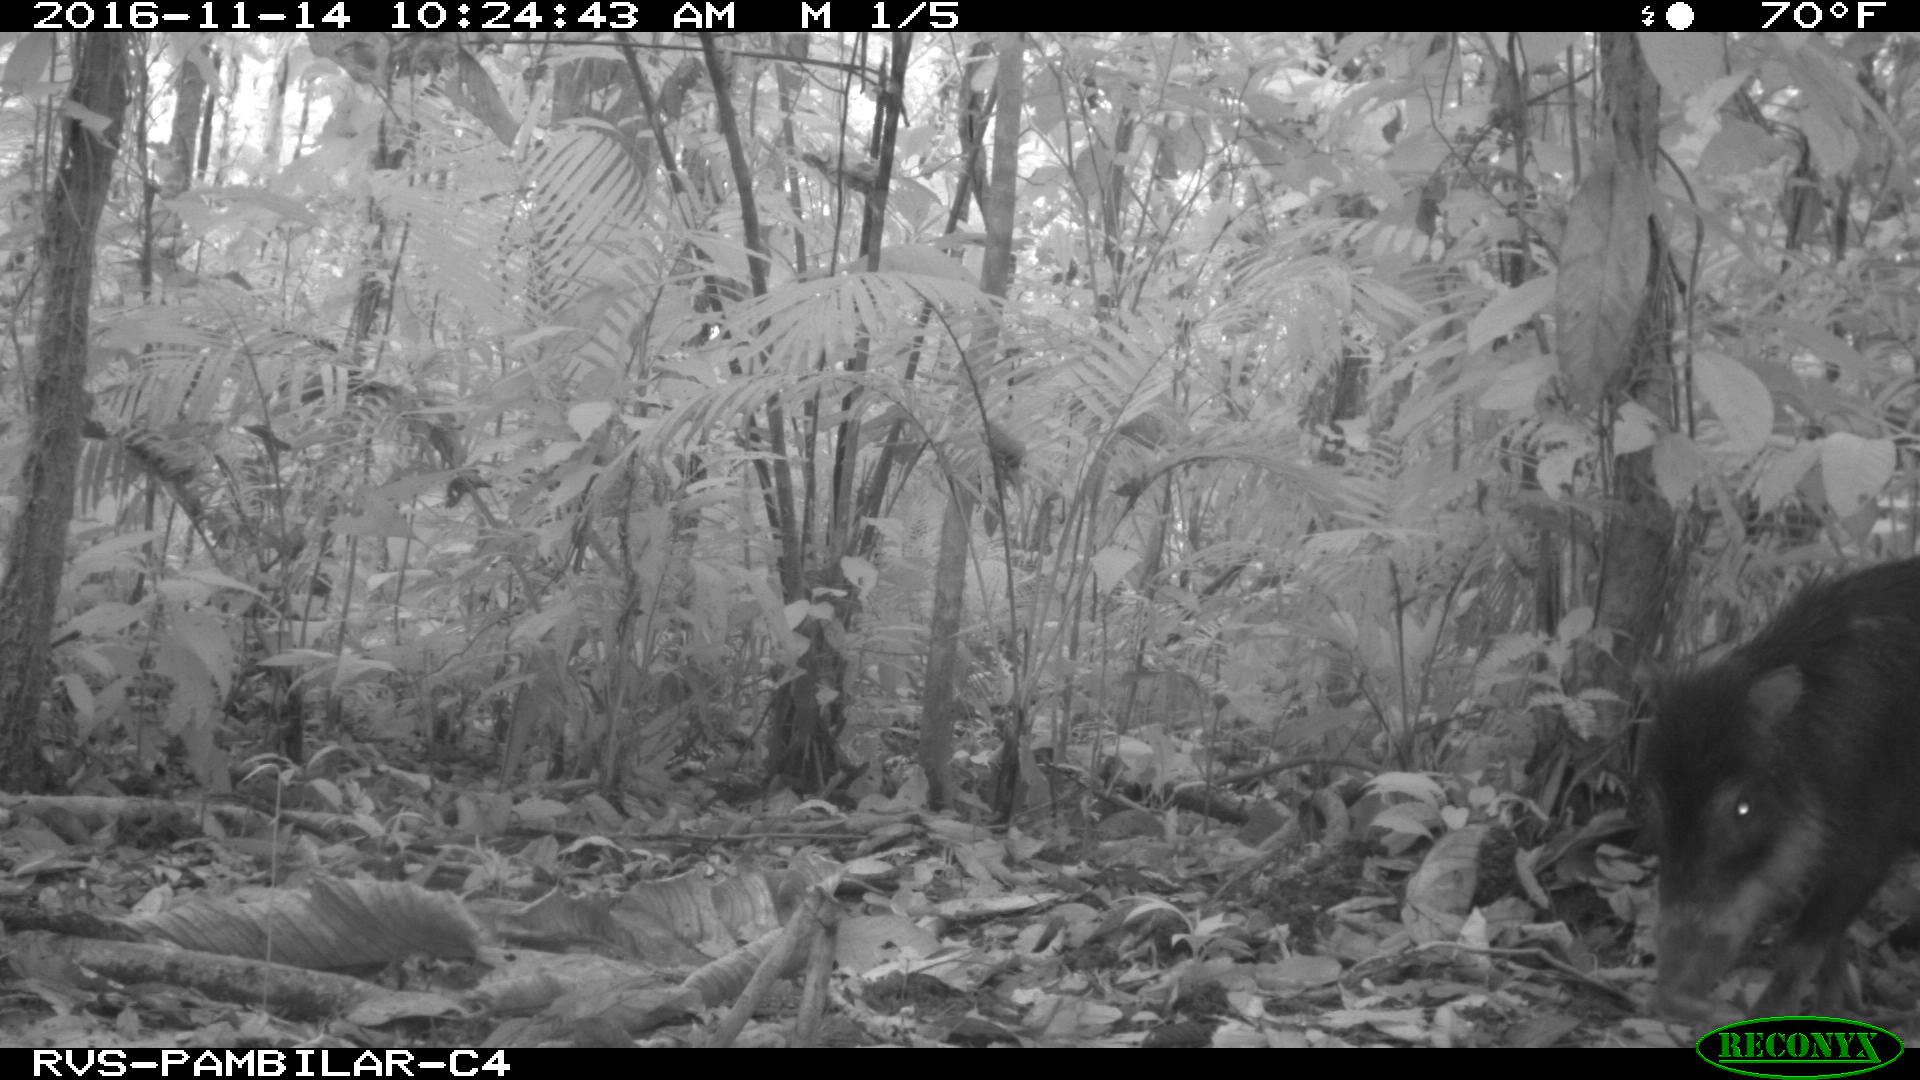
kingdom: Animalia
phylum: Chordata
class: Mammalia
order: Artiodactyla
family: Tayassuidae
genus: Tayassu
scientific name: Tayassu pecari
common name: White-lipped peccary
